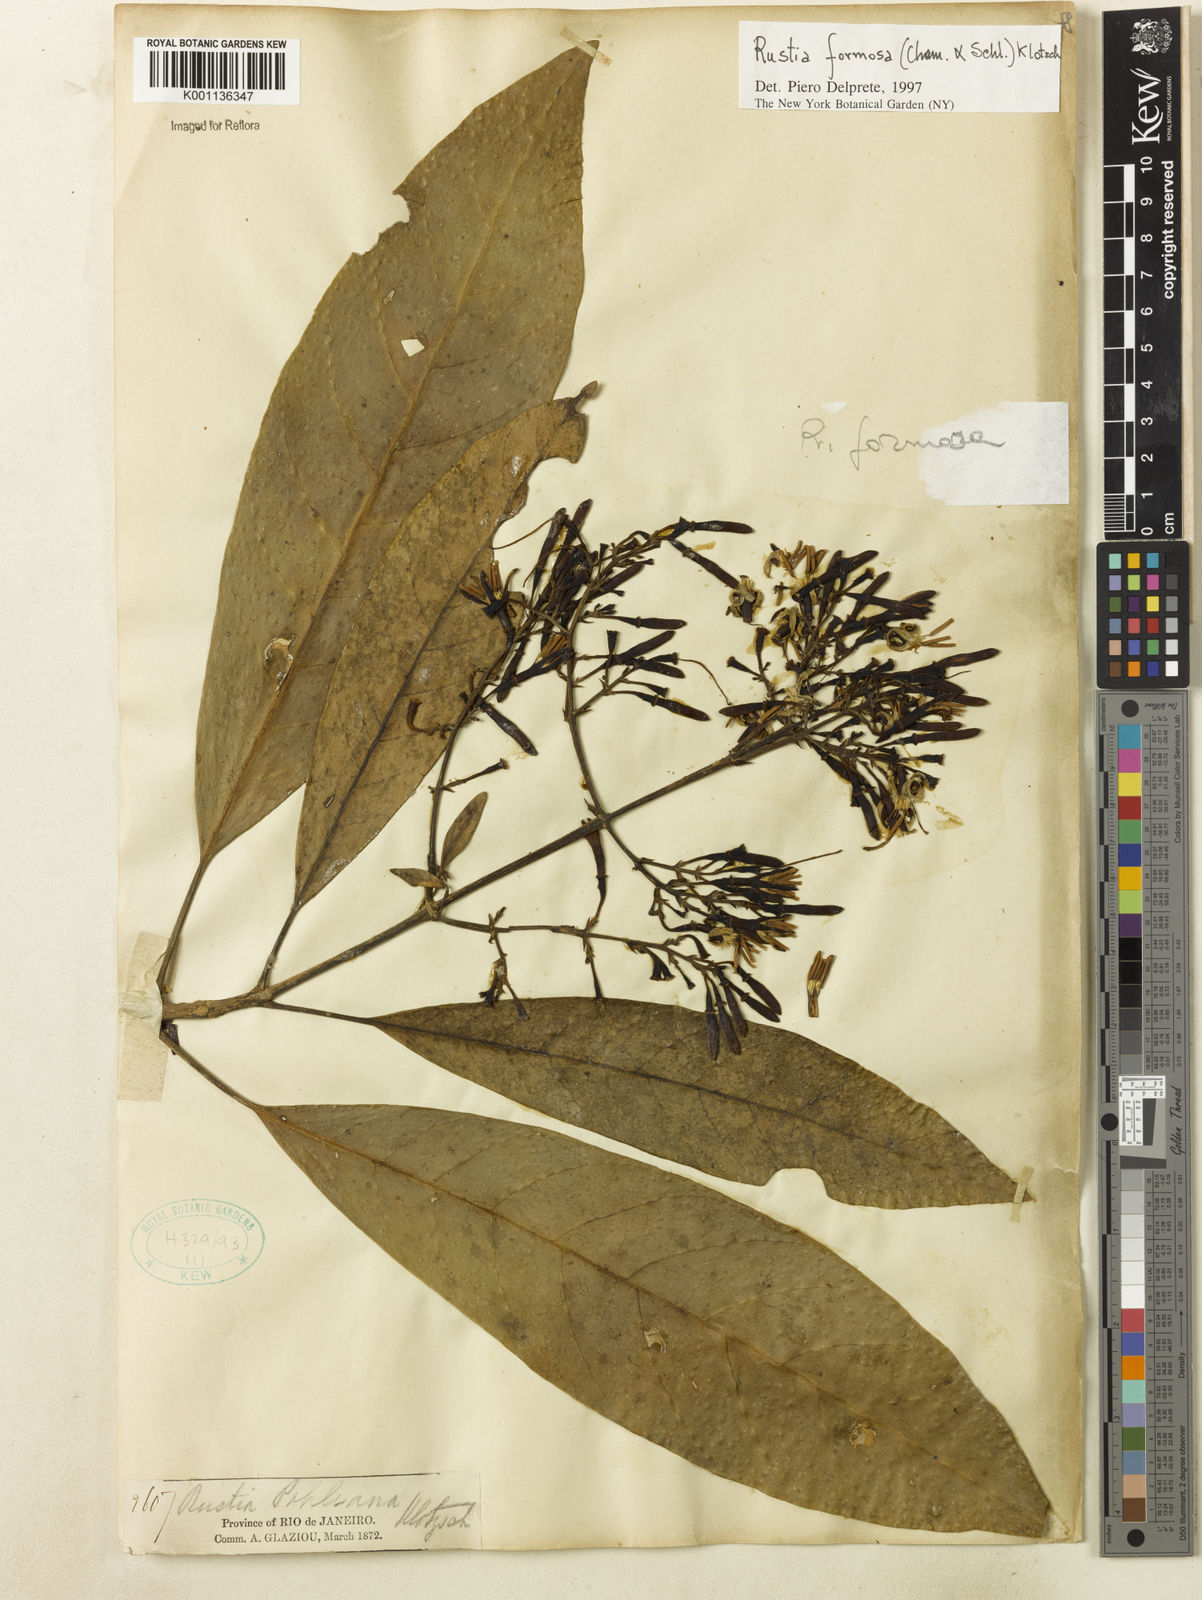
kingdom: Plantae
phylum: Tracheophyta
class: Magnoliopsida
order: Gentianales
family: Rubiaceae
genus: Rustia
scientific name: Rustia formosa
